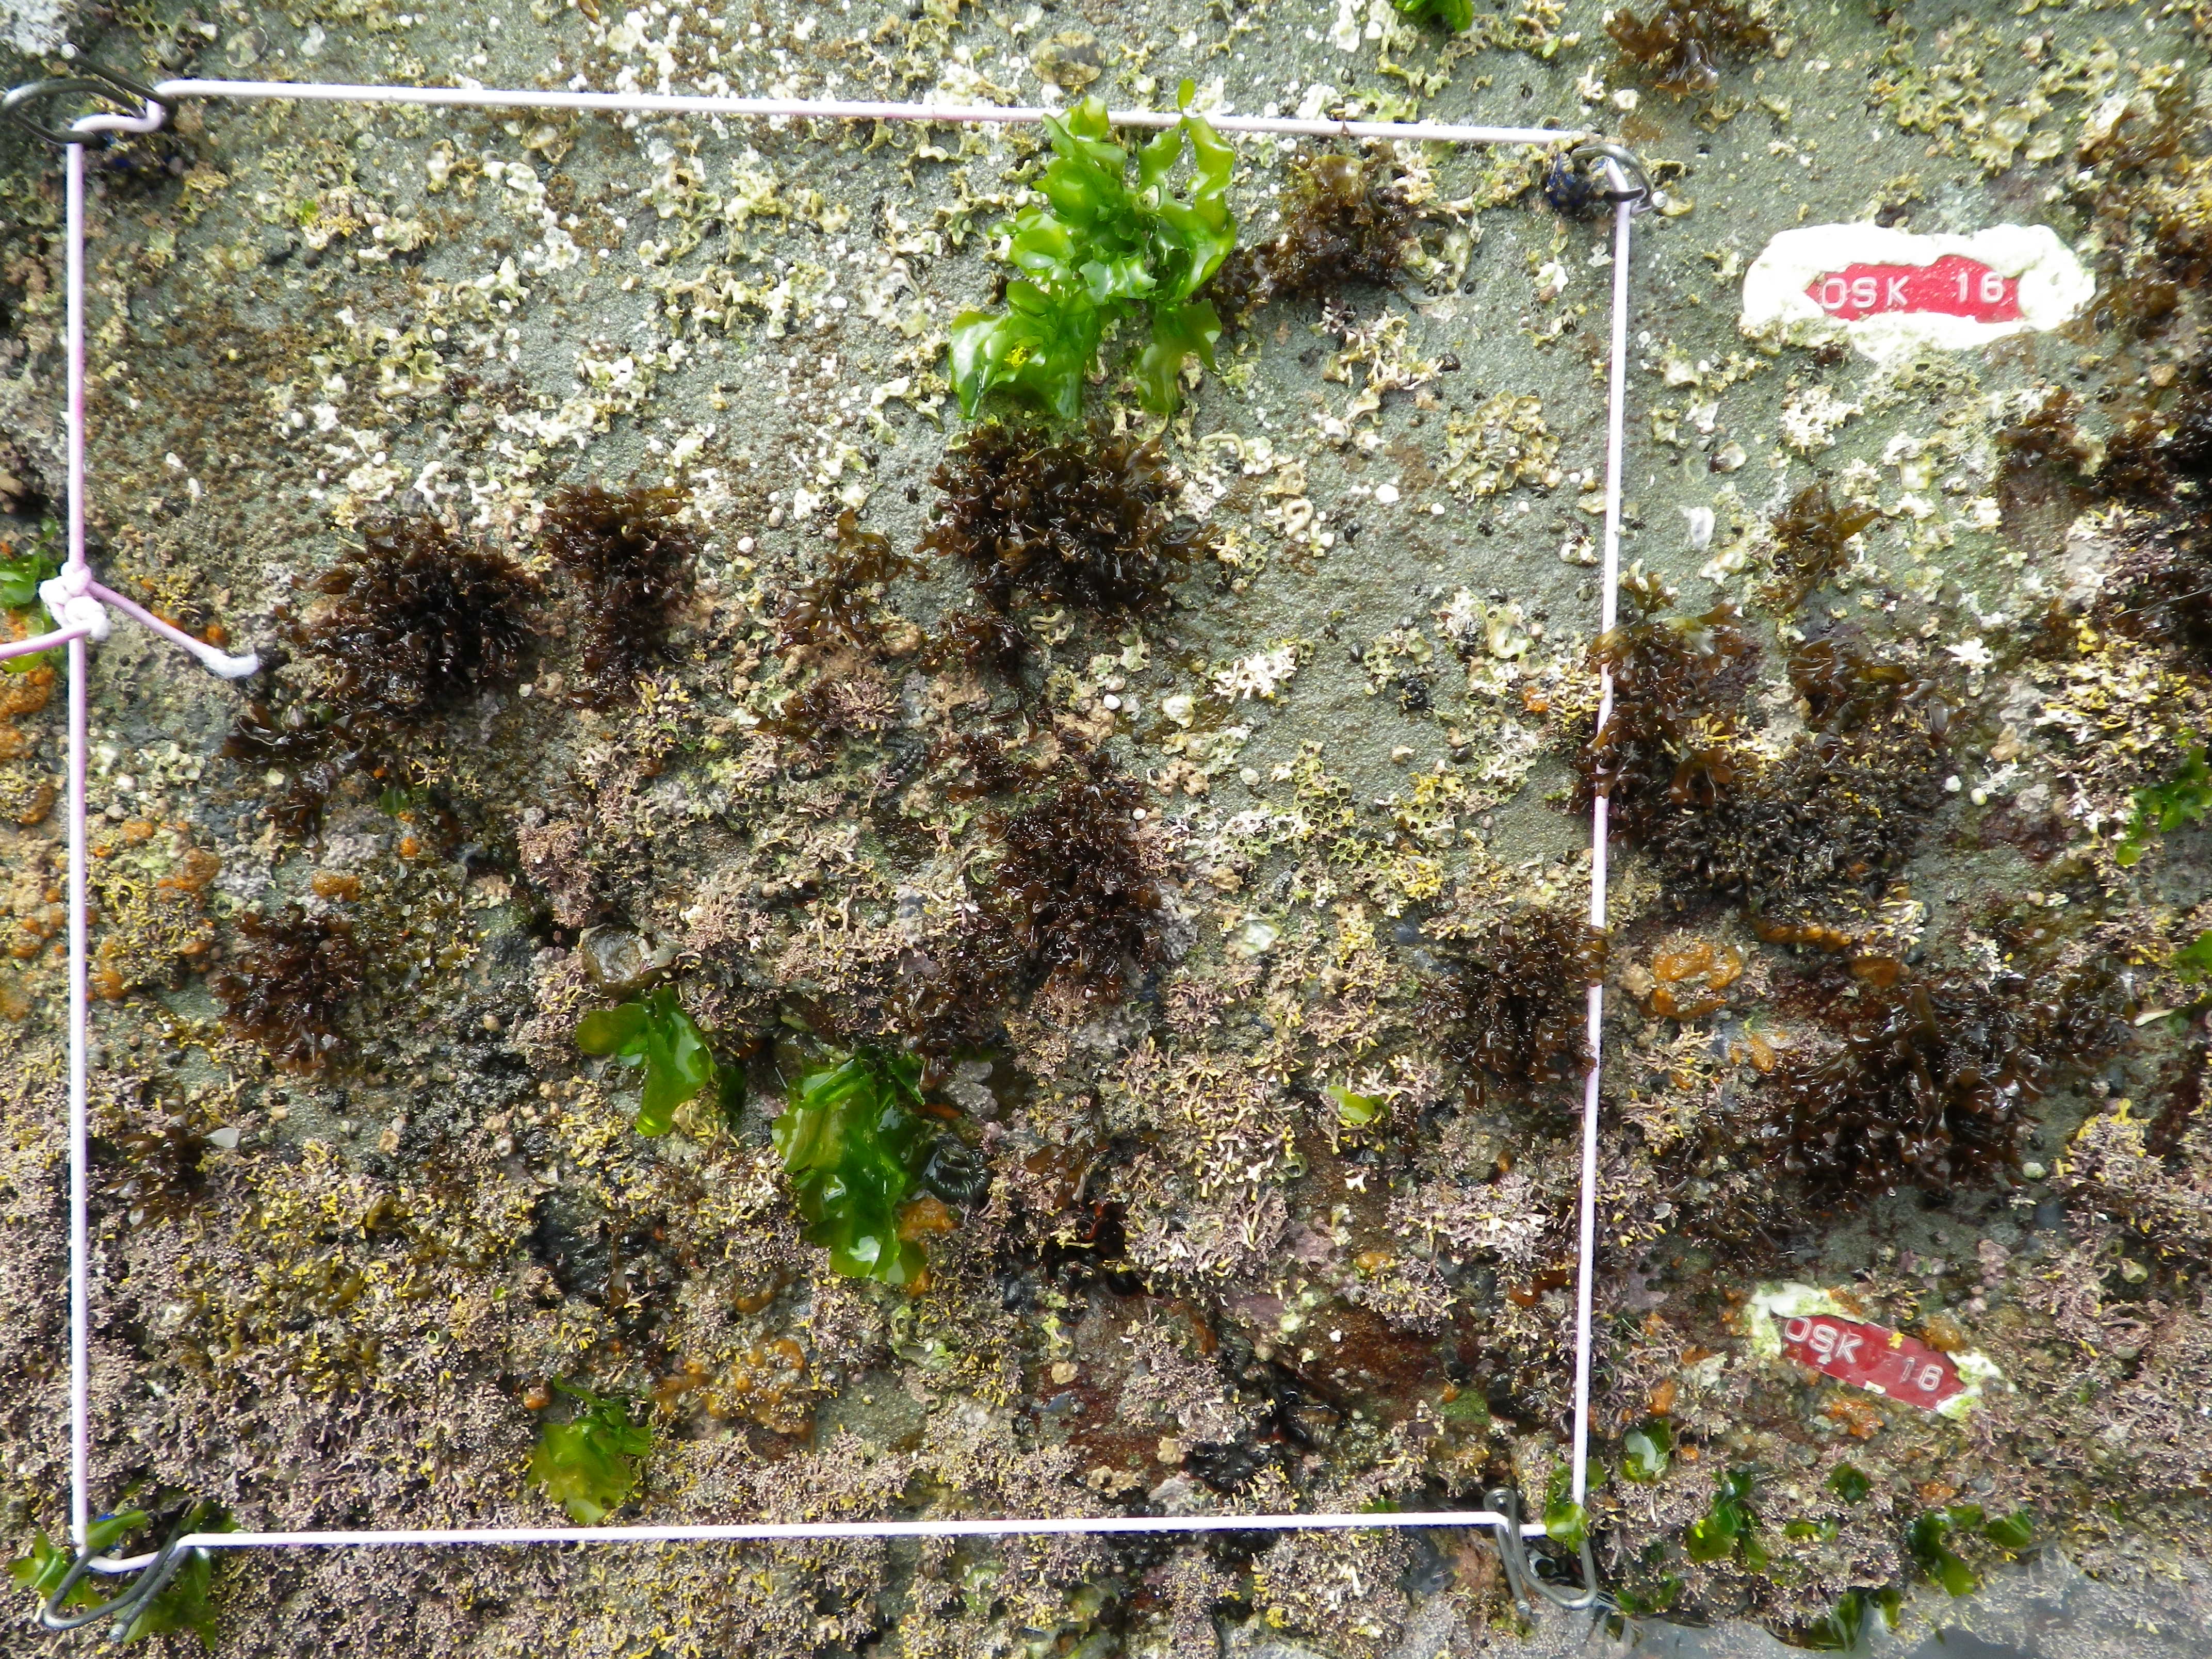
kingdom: Animalia
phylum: Arthropoda
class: Maxillopoda
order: Sessilia
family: Chthamalidae
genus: Chthamalus
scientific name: Chthamalus challengeri
